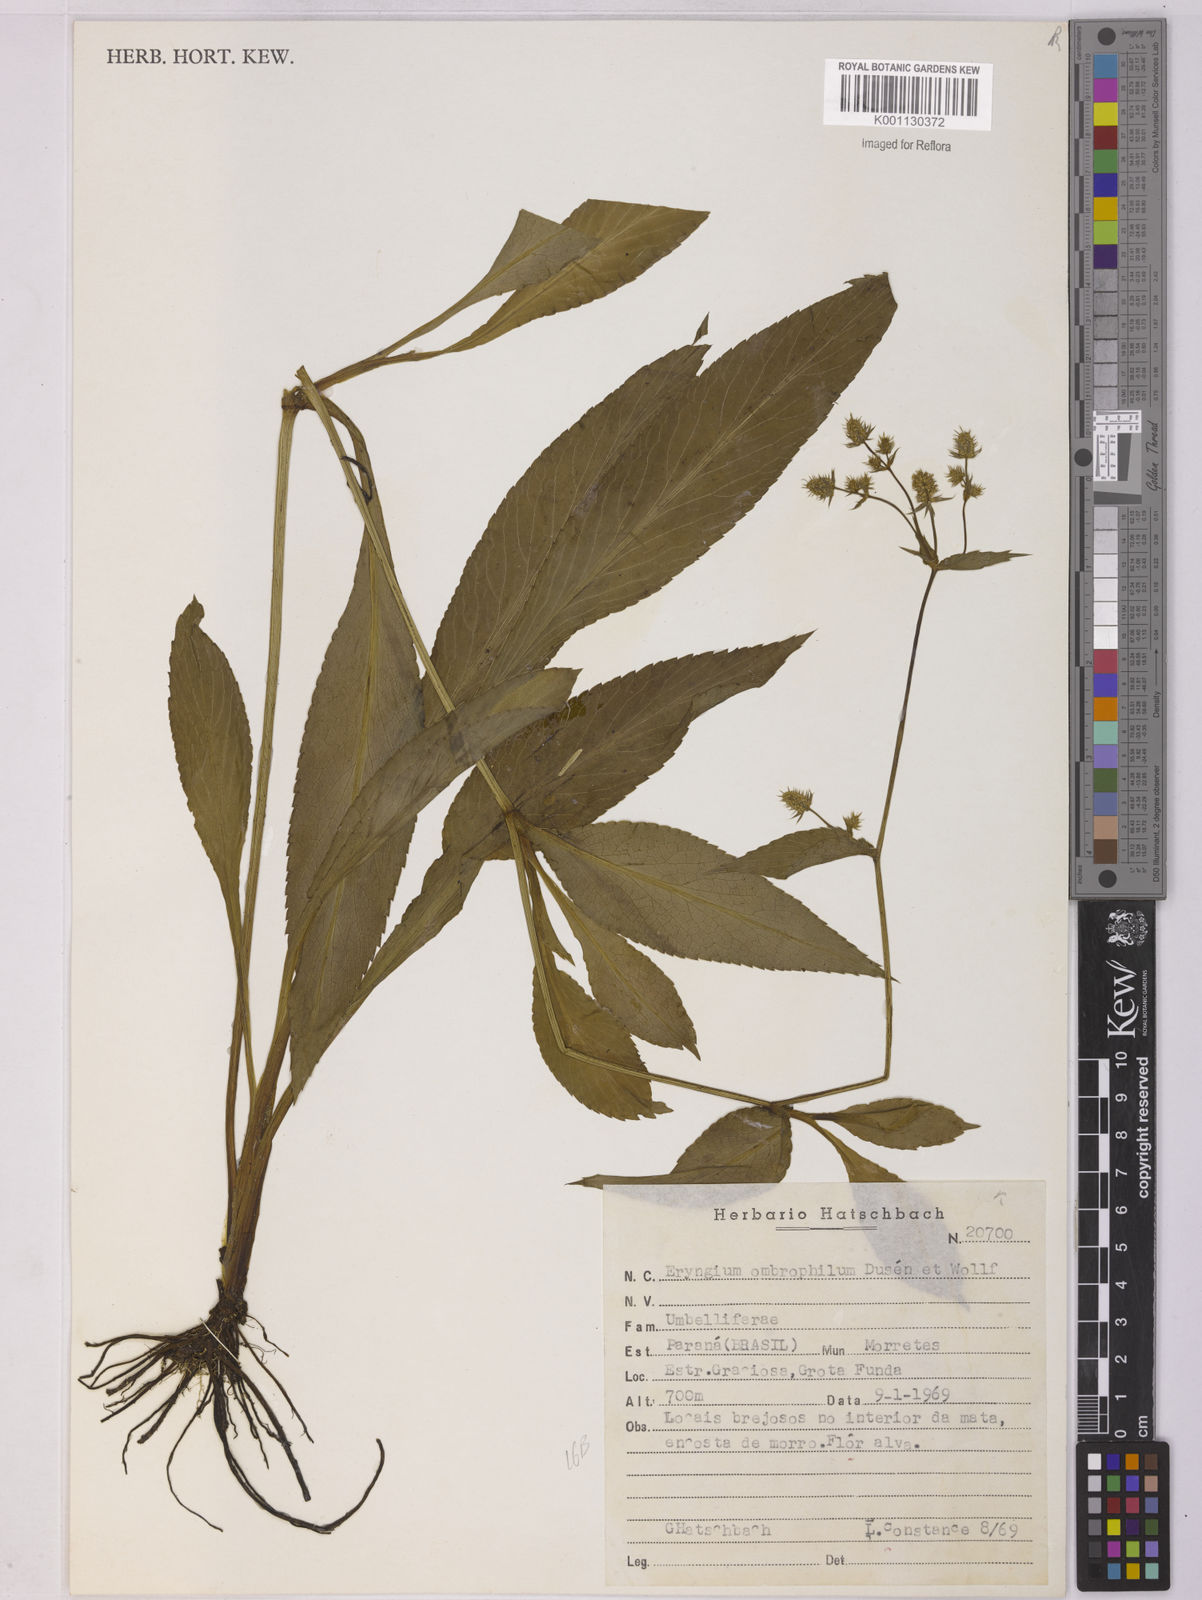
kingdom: Plantae
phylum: Tracheophyta
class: Magnoliopsida
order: Apiales
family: Apiaceae
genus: Eryngium
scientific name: Eryngium
